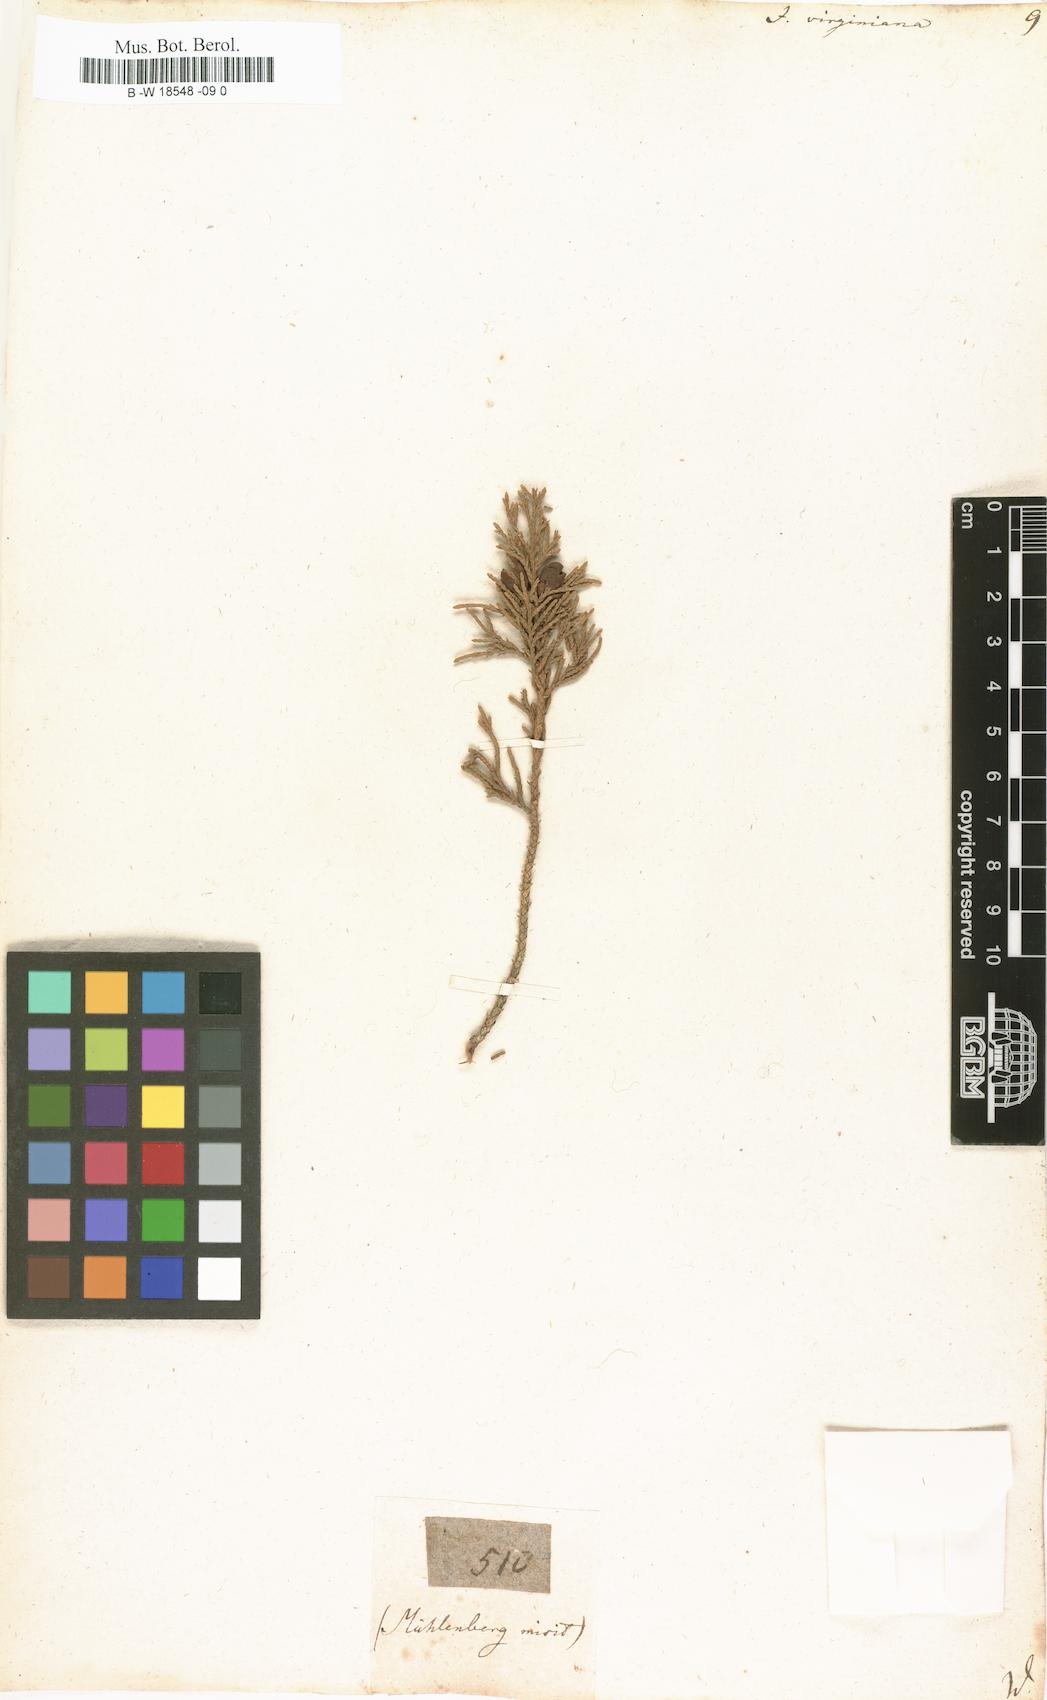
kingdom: Plantae
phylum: Tracheophyta
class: Pinopsida
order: Pinales
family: Cupressaceae
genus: Juniperus
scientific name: Juniperus virginiana
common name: Red juniper
